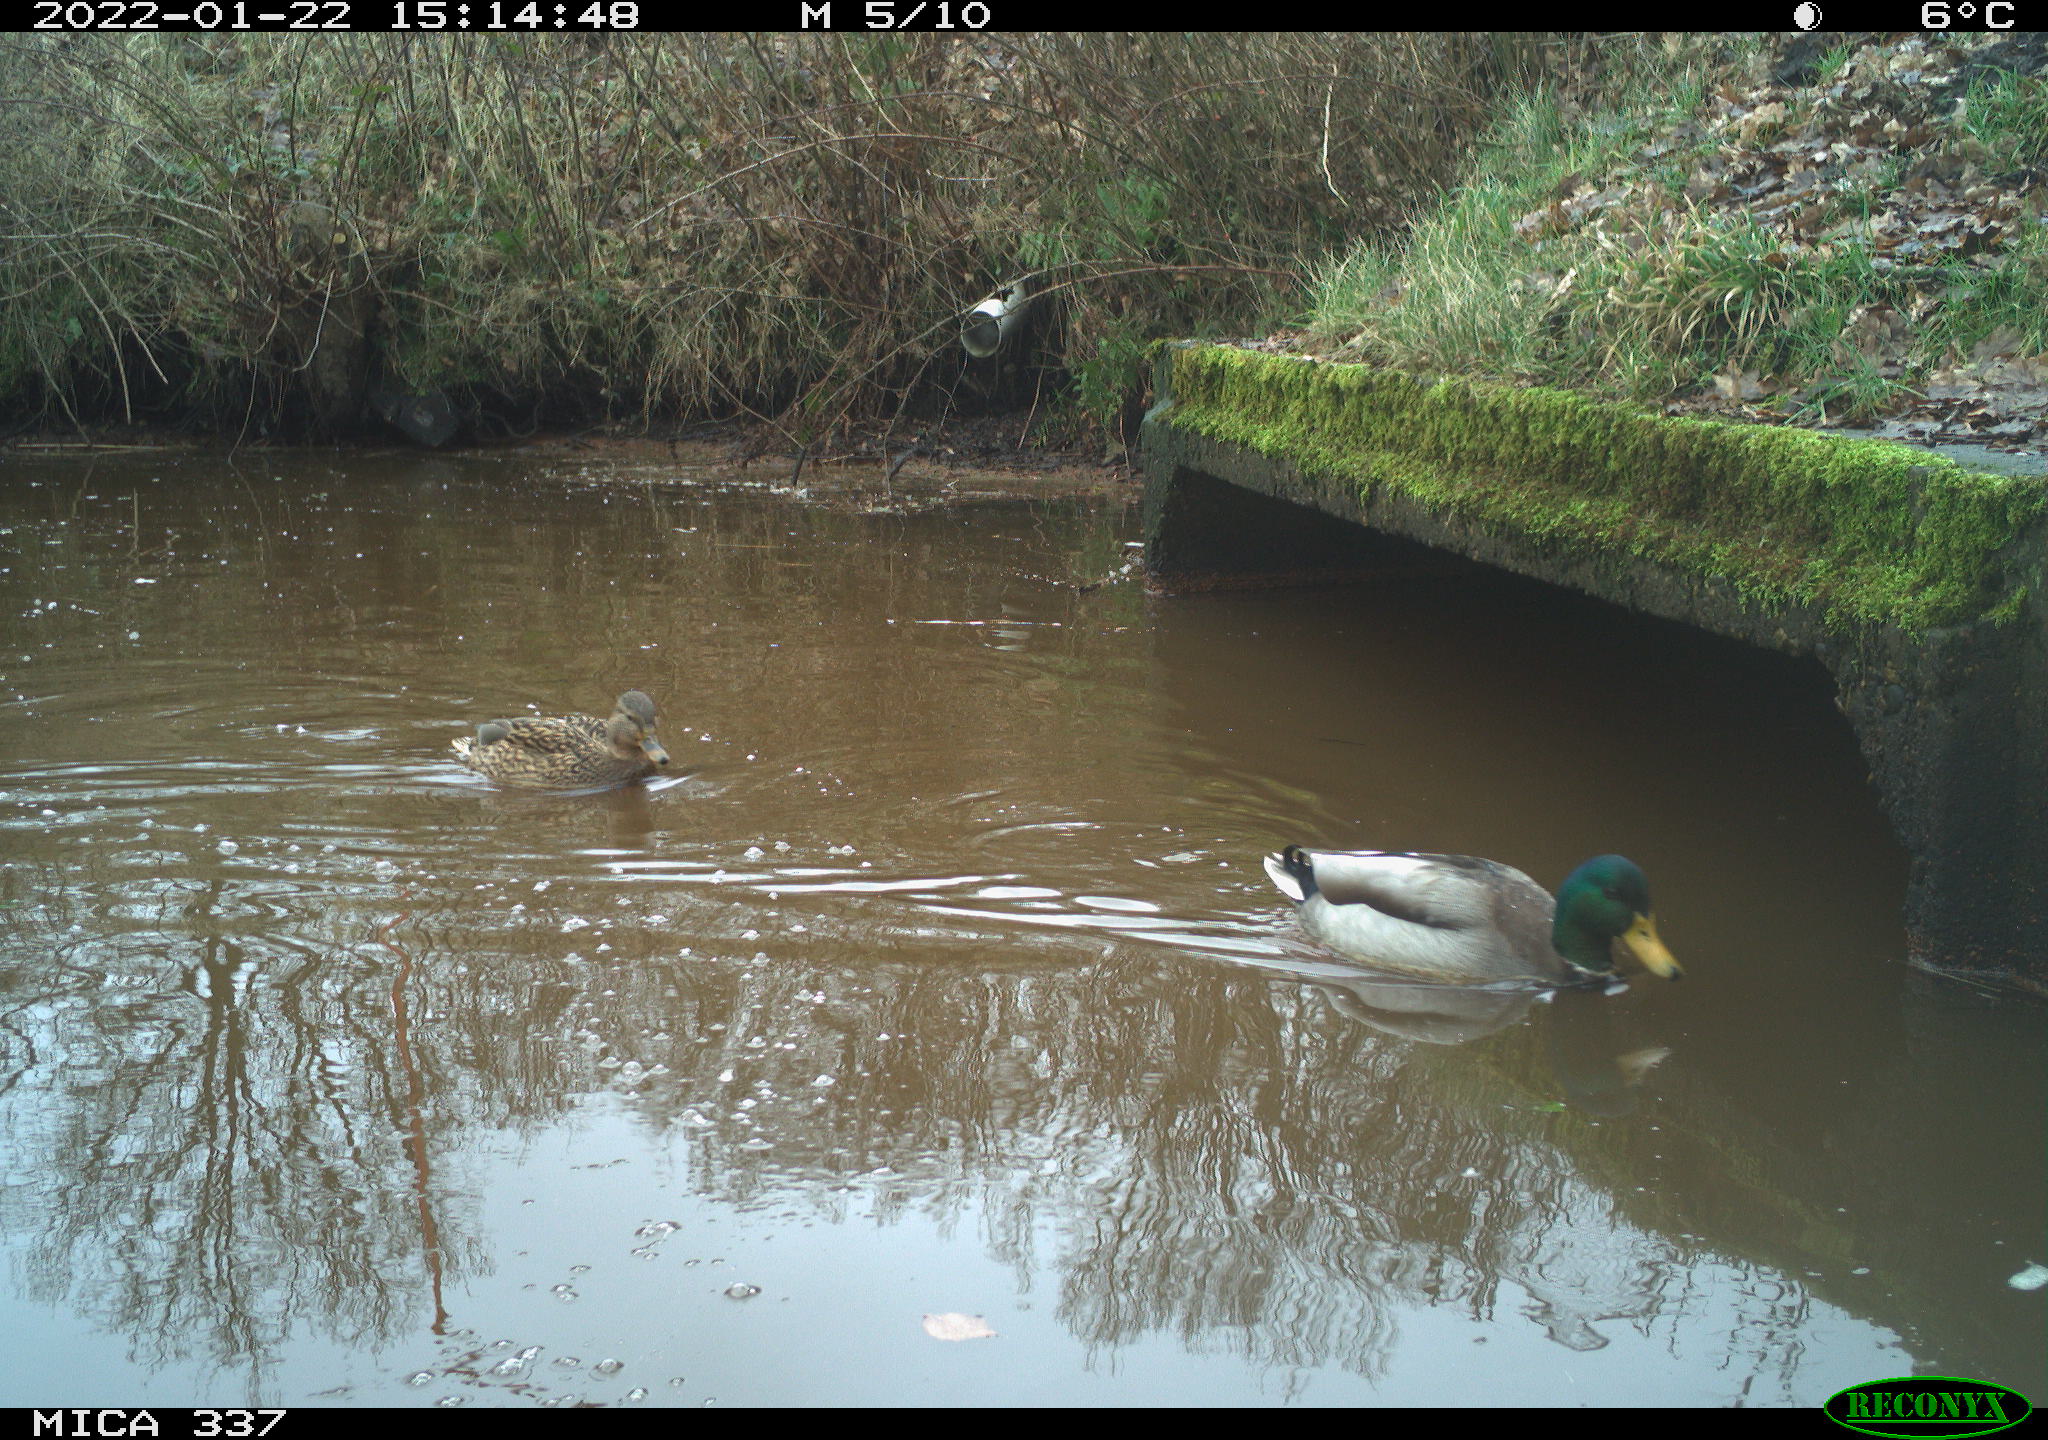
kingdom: Animalia
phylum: Chordata
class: Aves
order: Anseriformes
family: Anatidae
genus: Anas
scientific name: Anas platyrhynchos
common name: Mallard
